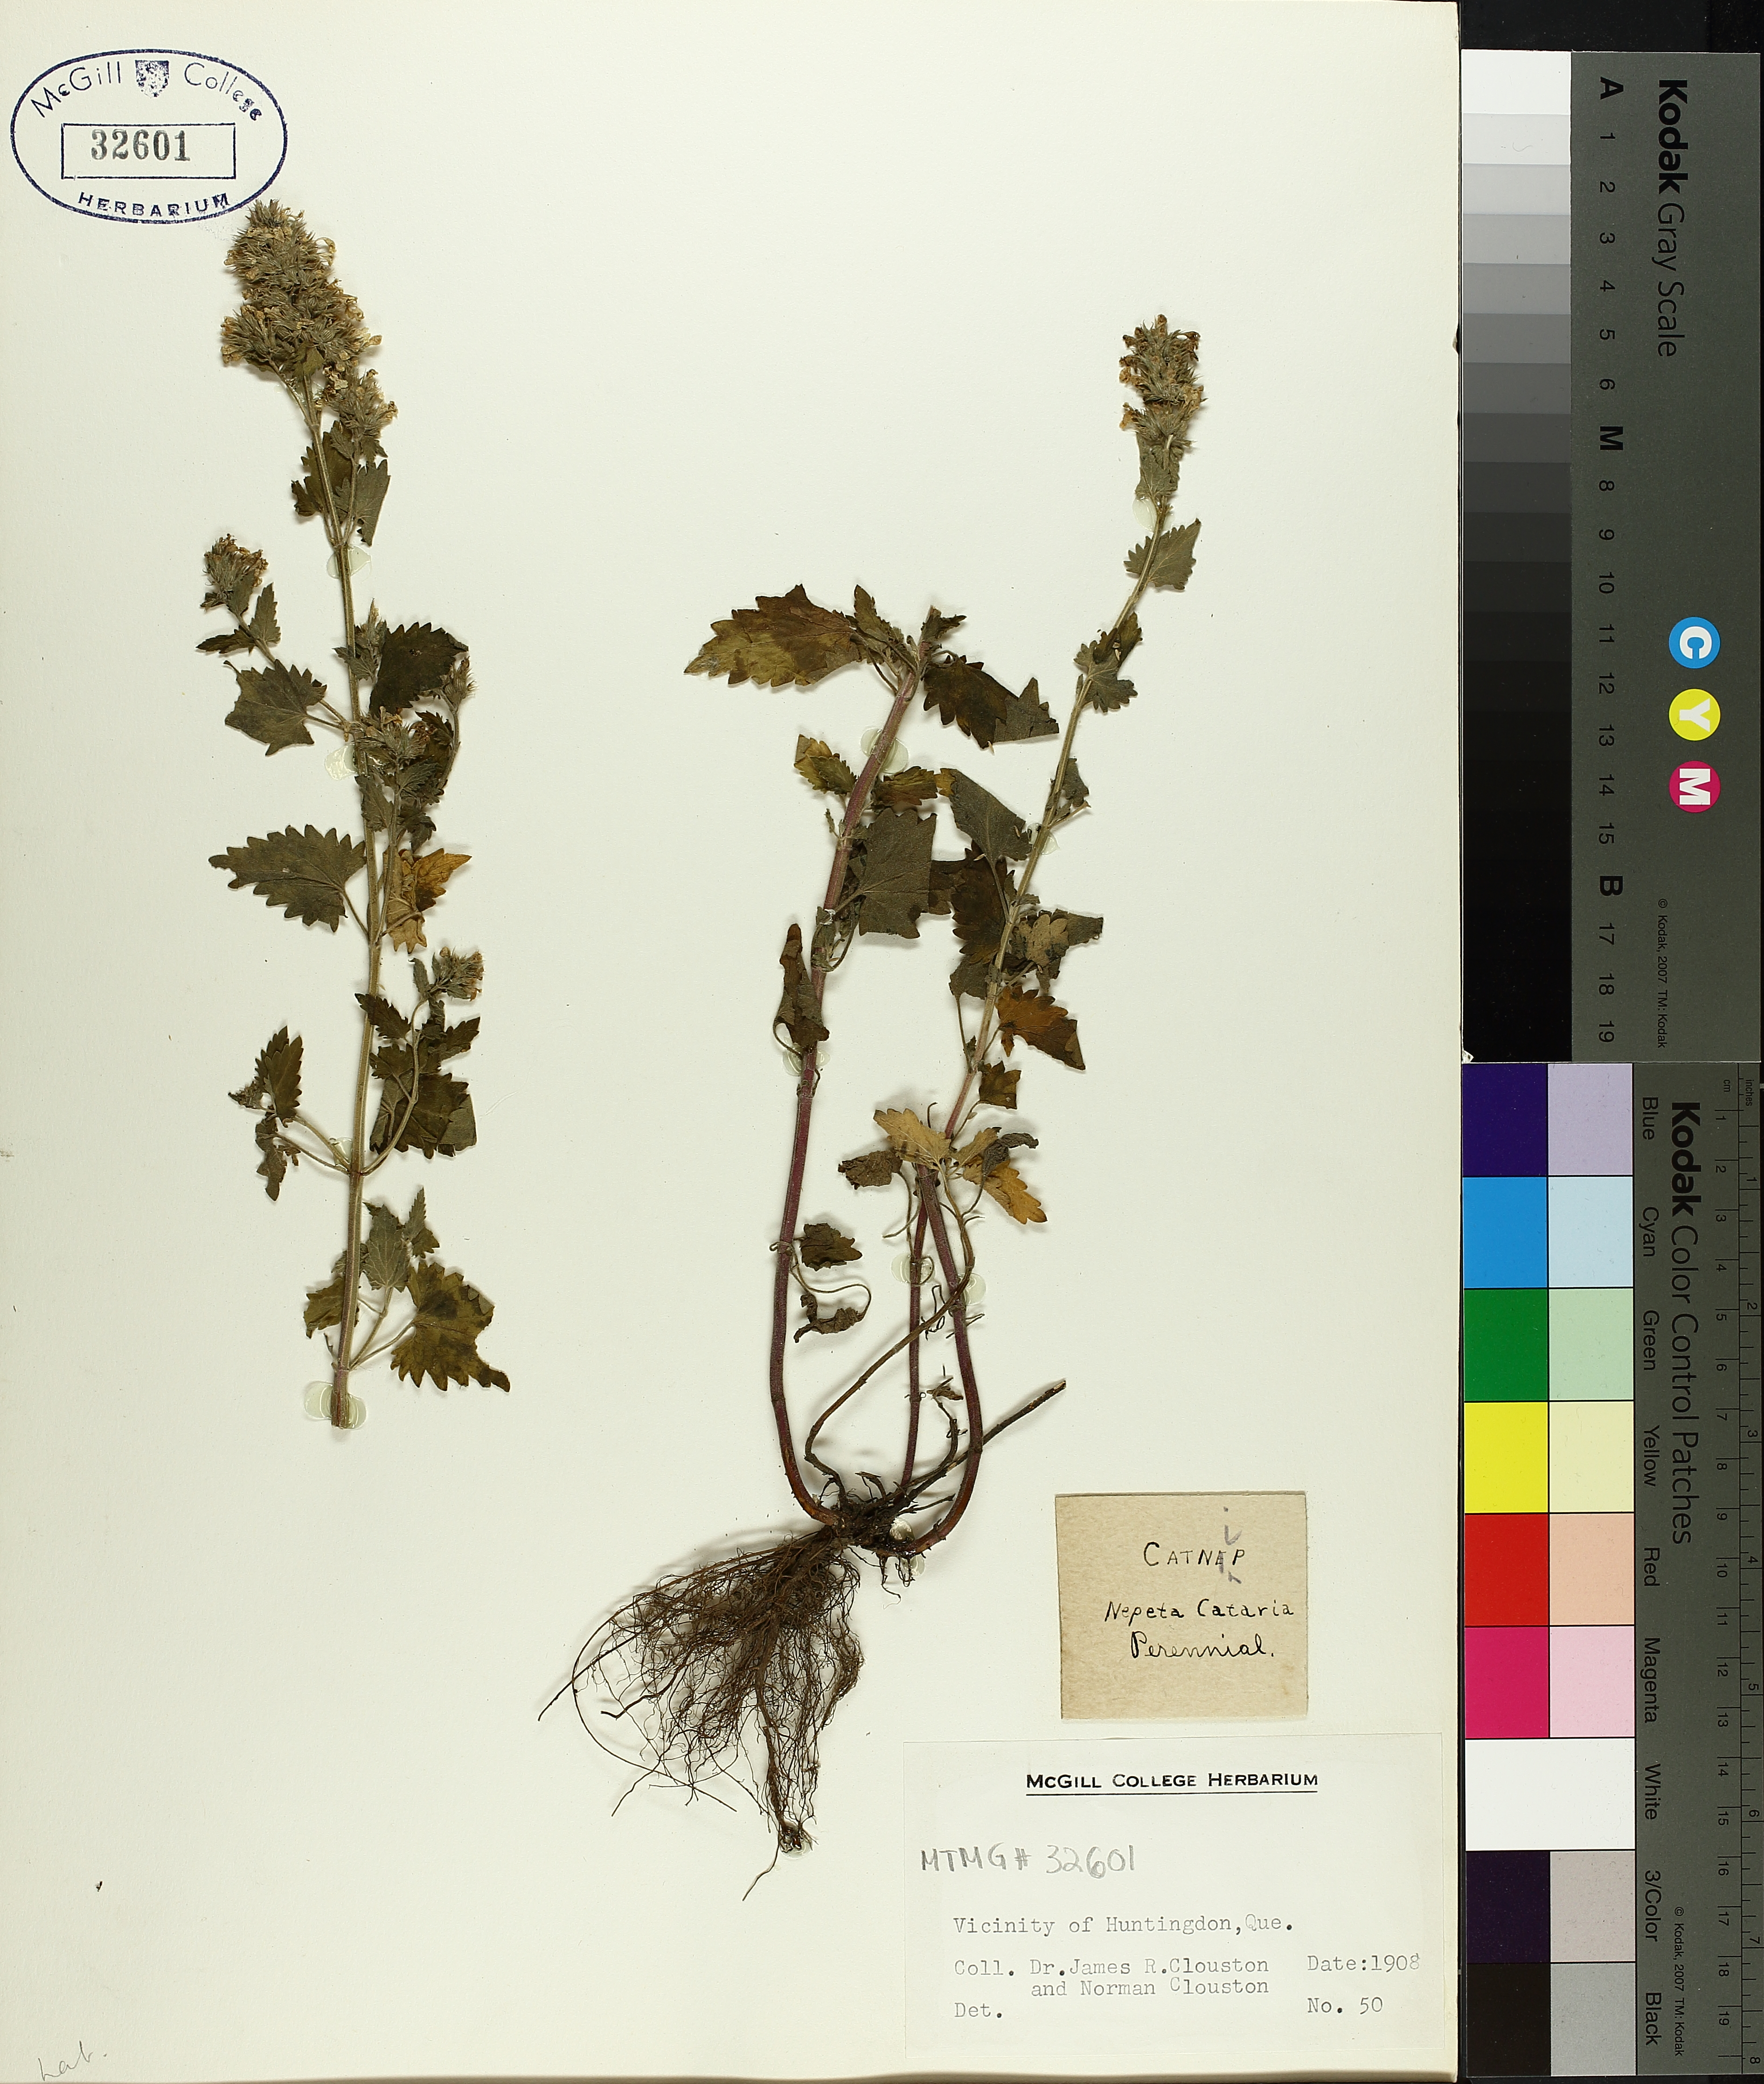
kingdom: Plantae
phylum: Tracheophyta
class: Magnoliopsida
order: Lamiales
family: Lamiaceae
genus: Nepeta
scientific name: Nepeta cataria
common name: Catnip
